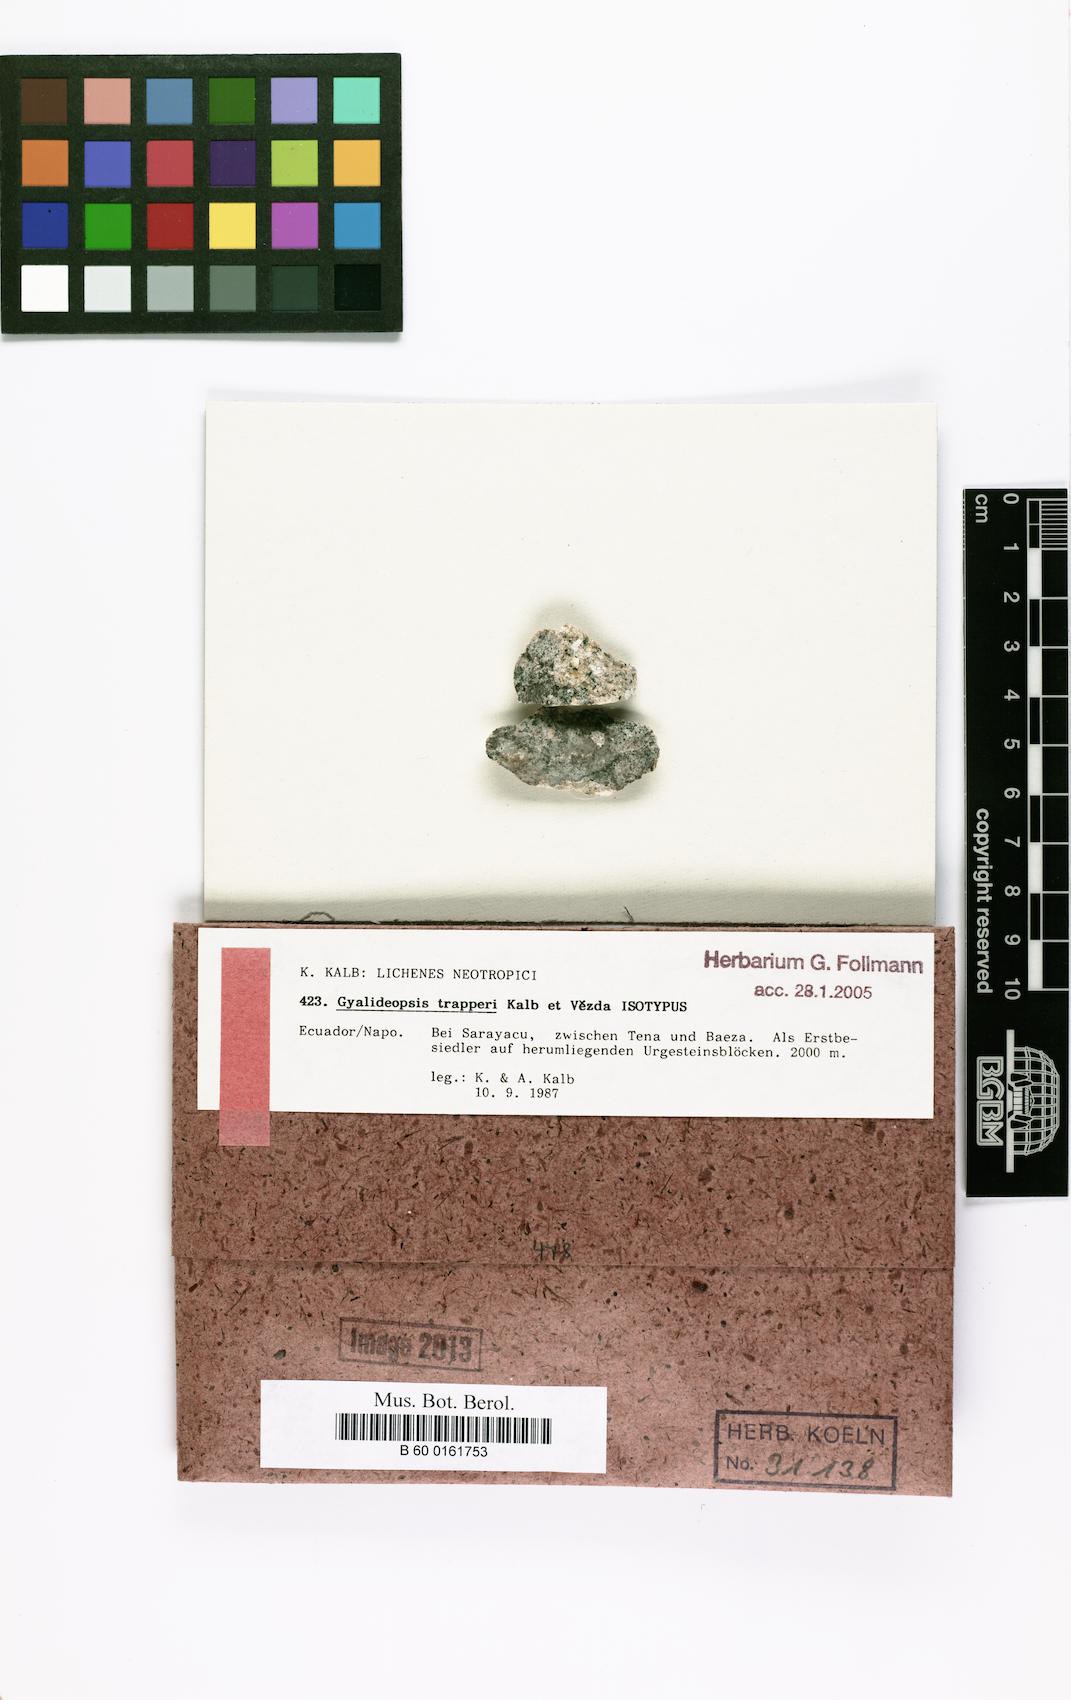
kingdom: Fungi
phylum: Ascomycota
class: Lecanoromycetes
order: Ostropales
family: Gomphillaceae
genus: Diploschistella
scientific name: Diploschistella trapperi
